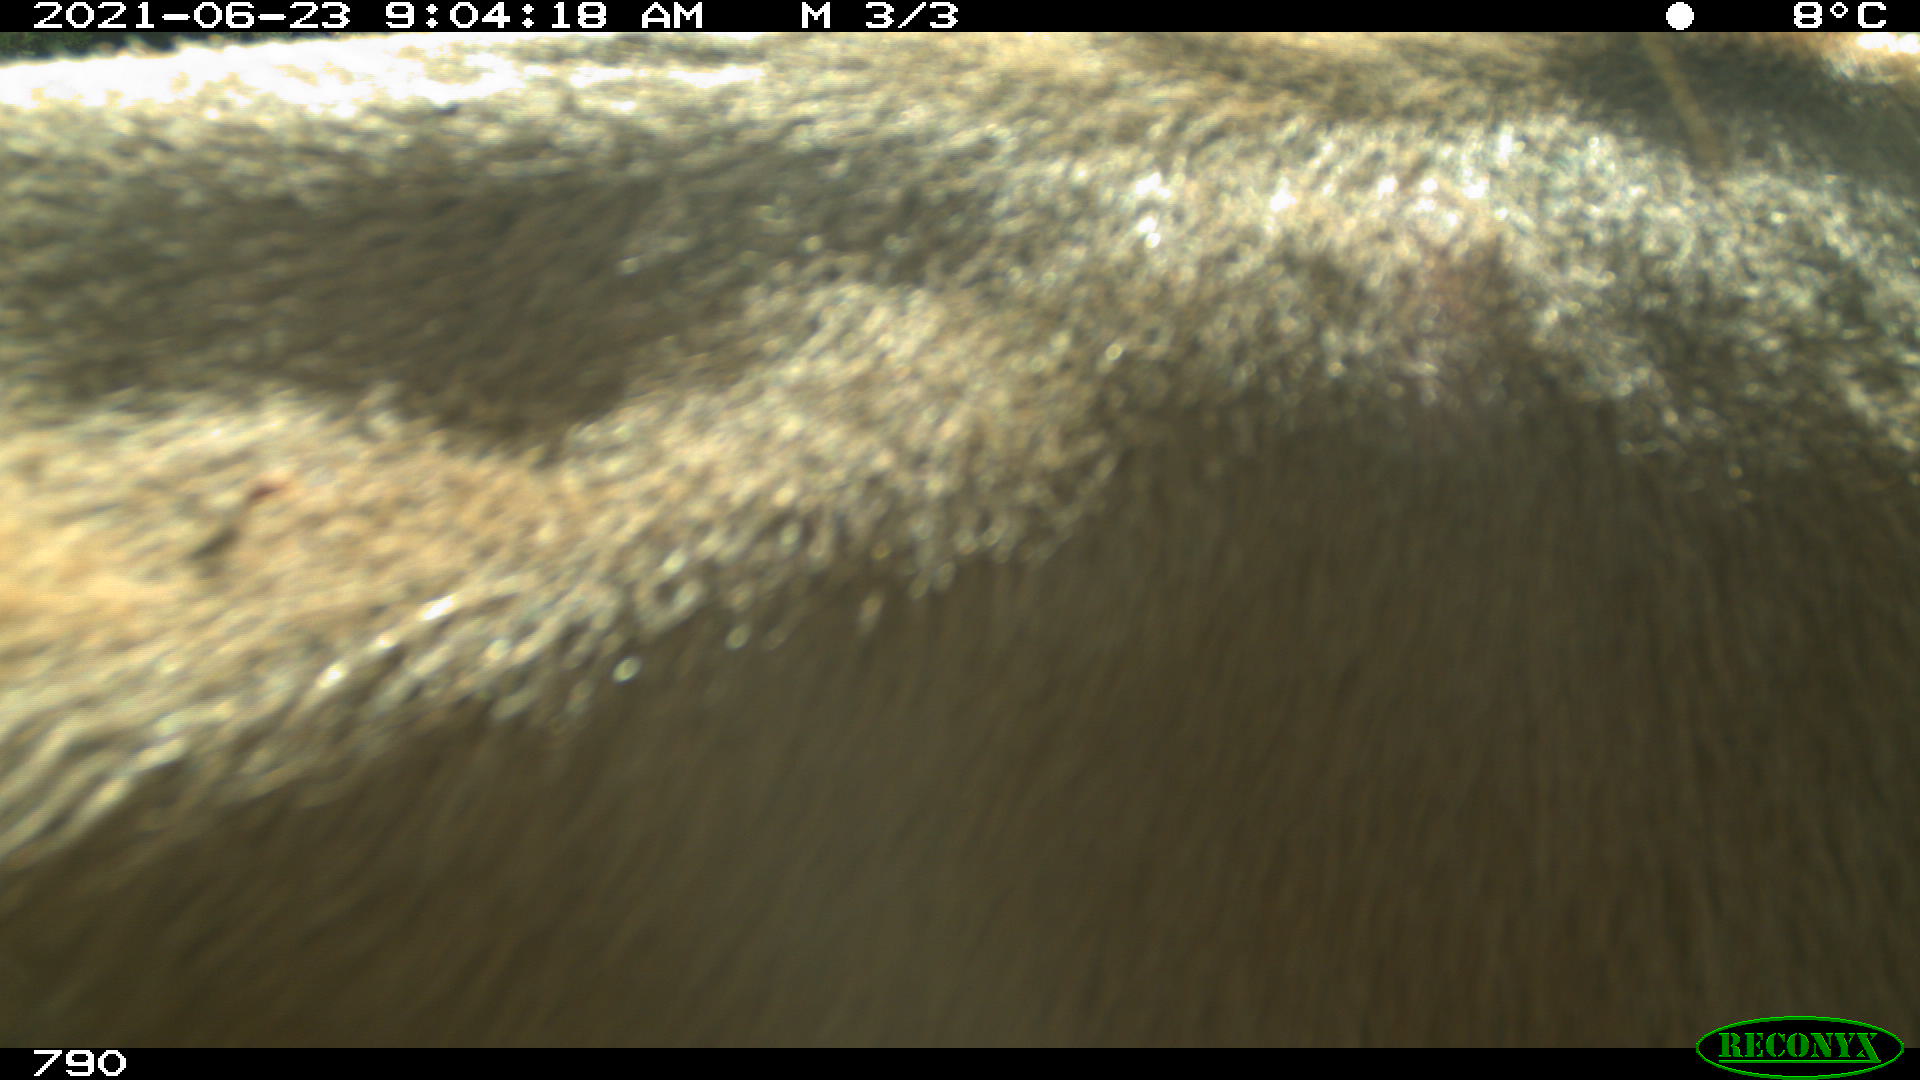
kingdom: Animalia
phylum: Chordata
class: Mammalia
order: Artiodactyla
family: Bovidae
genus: Bos
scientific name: Bos taurus
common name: Domesticated cattle
